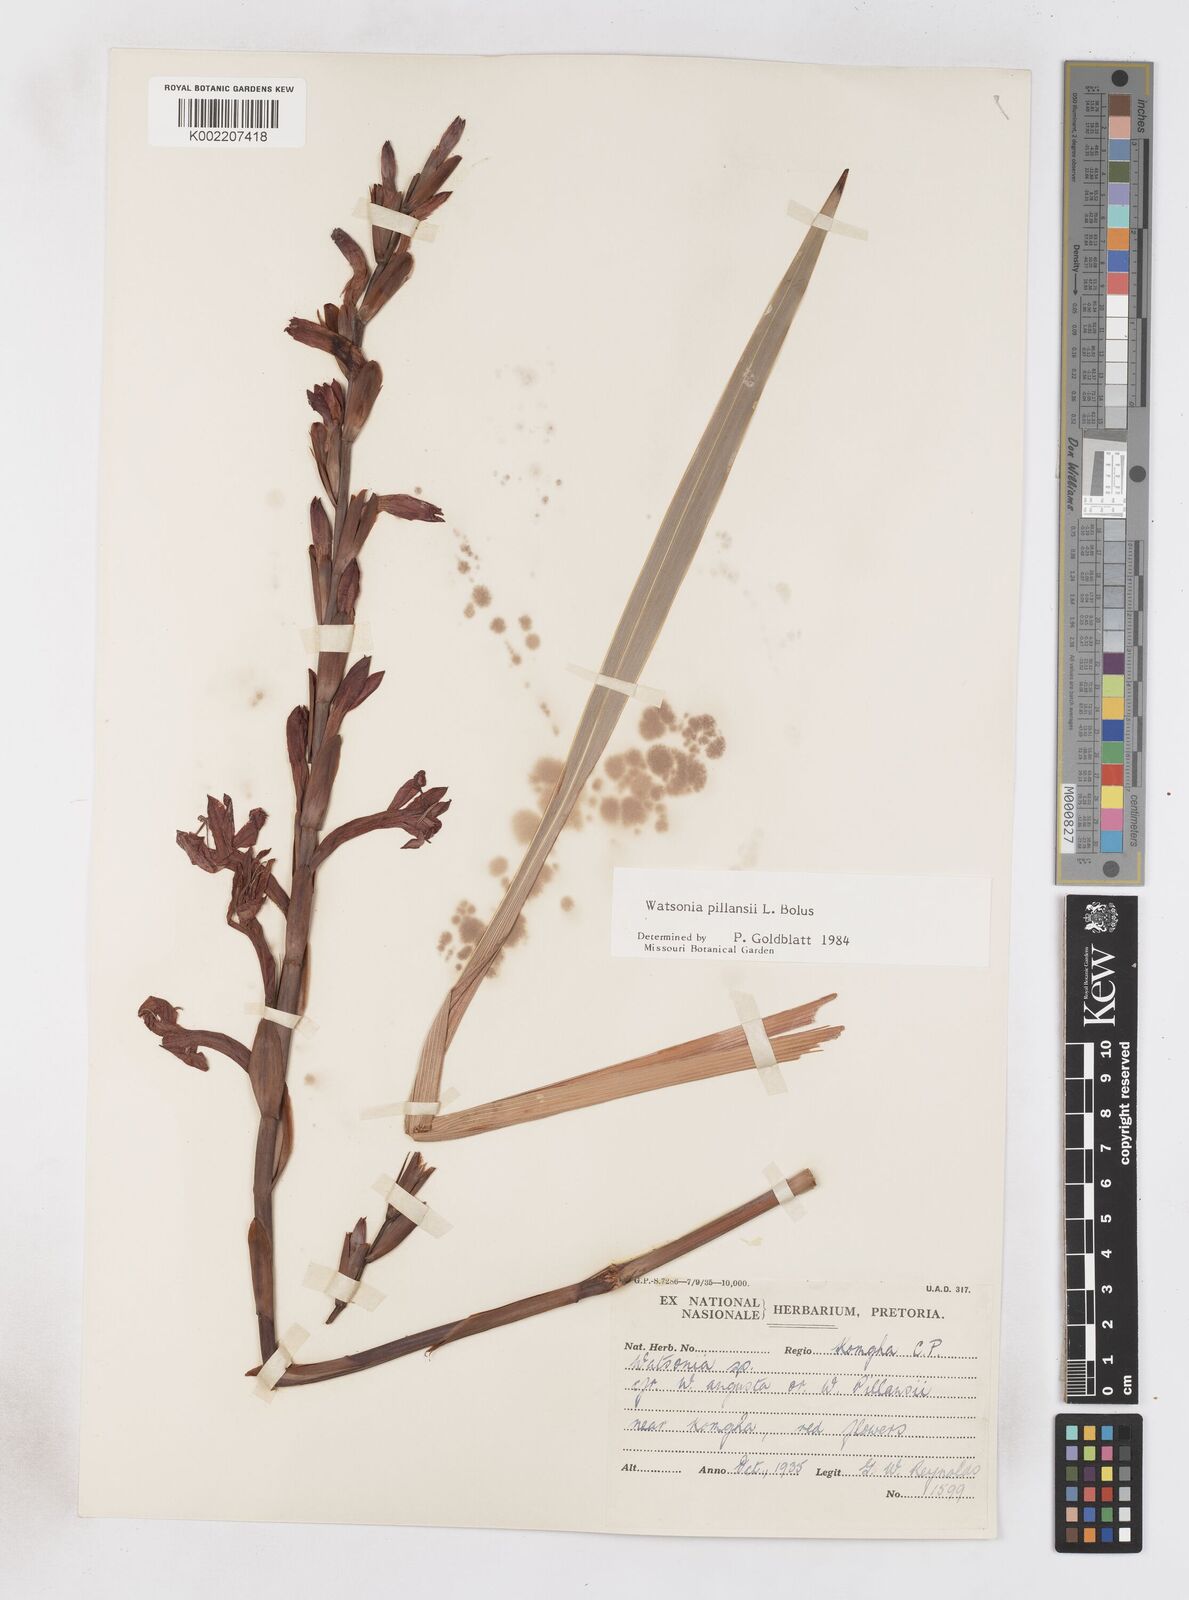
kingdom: Plantae
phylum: Tracheophyta
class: Liliopsida
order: Asparagales
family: Iridaceae
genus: Watsonia
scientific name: Watsonia pillansii
